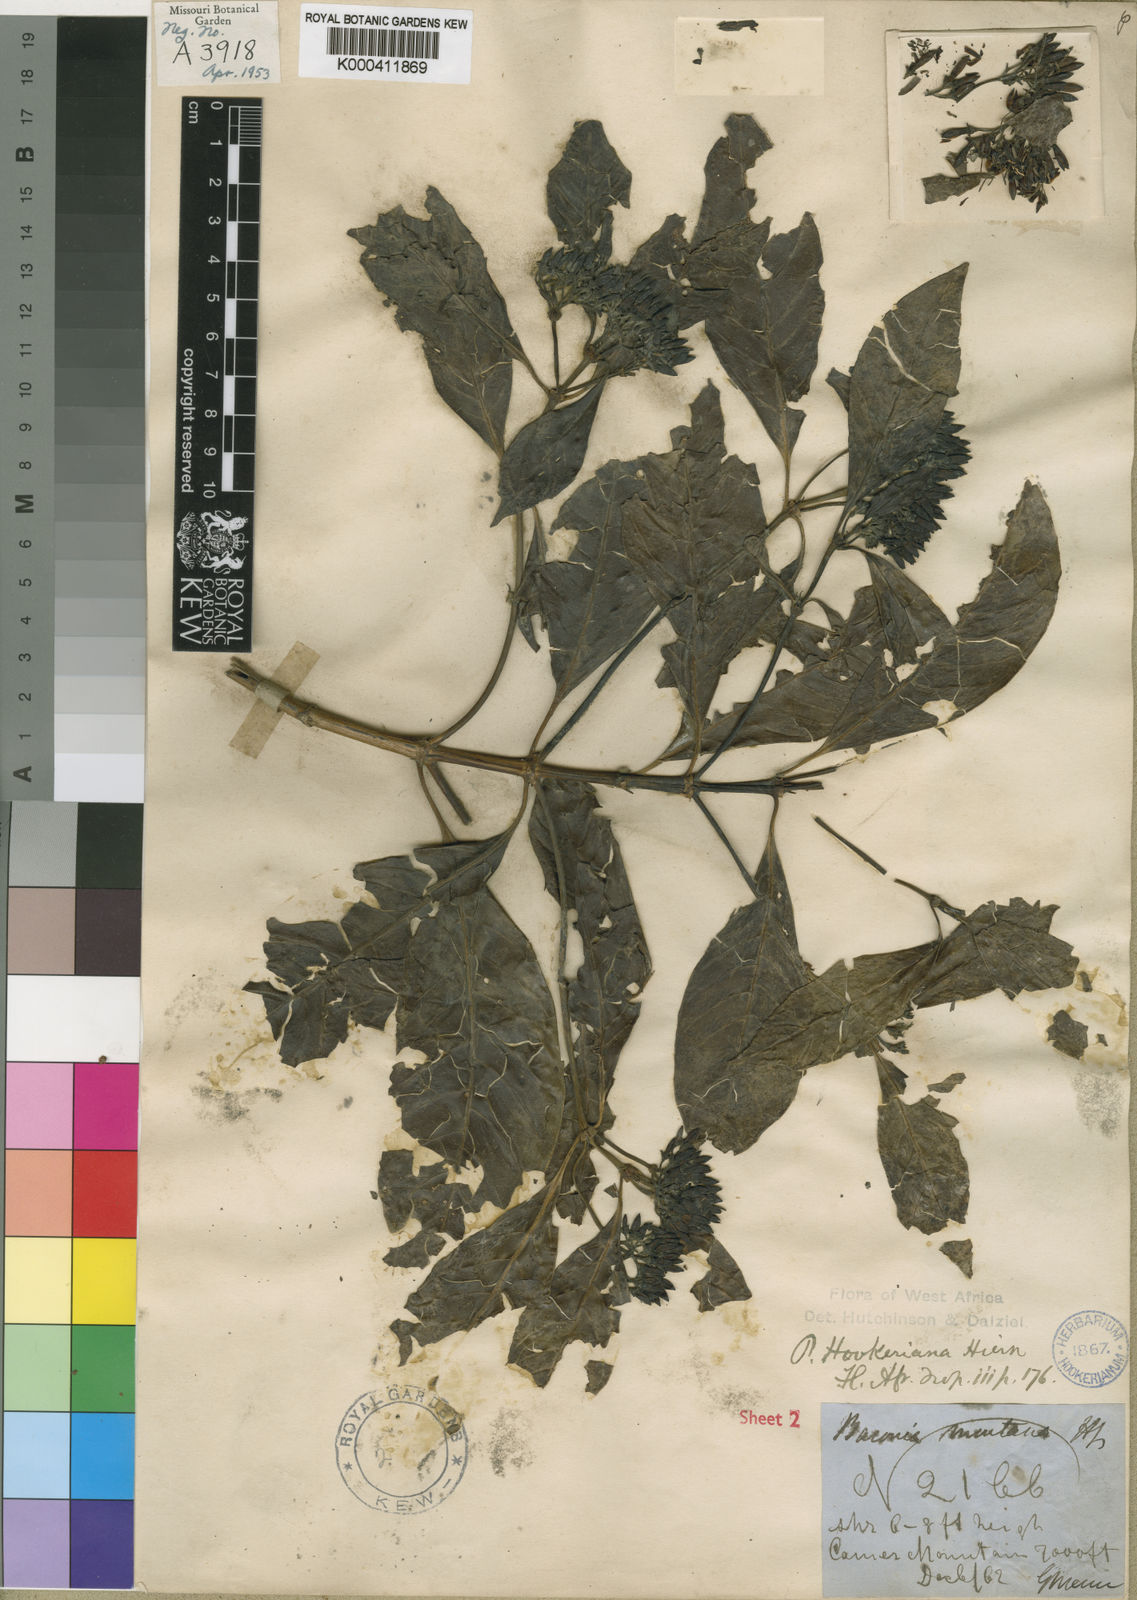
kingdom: Plantae
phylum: Tracheophyta
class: Magnoliopsida
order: Gentianales
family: Rubiaceae
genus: Pavetta
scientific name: Pavetta hookeriana
